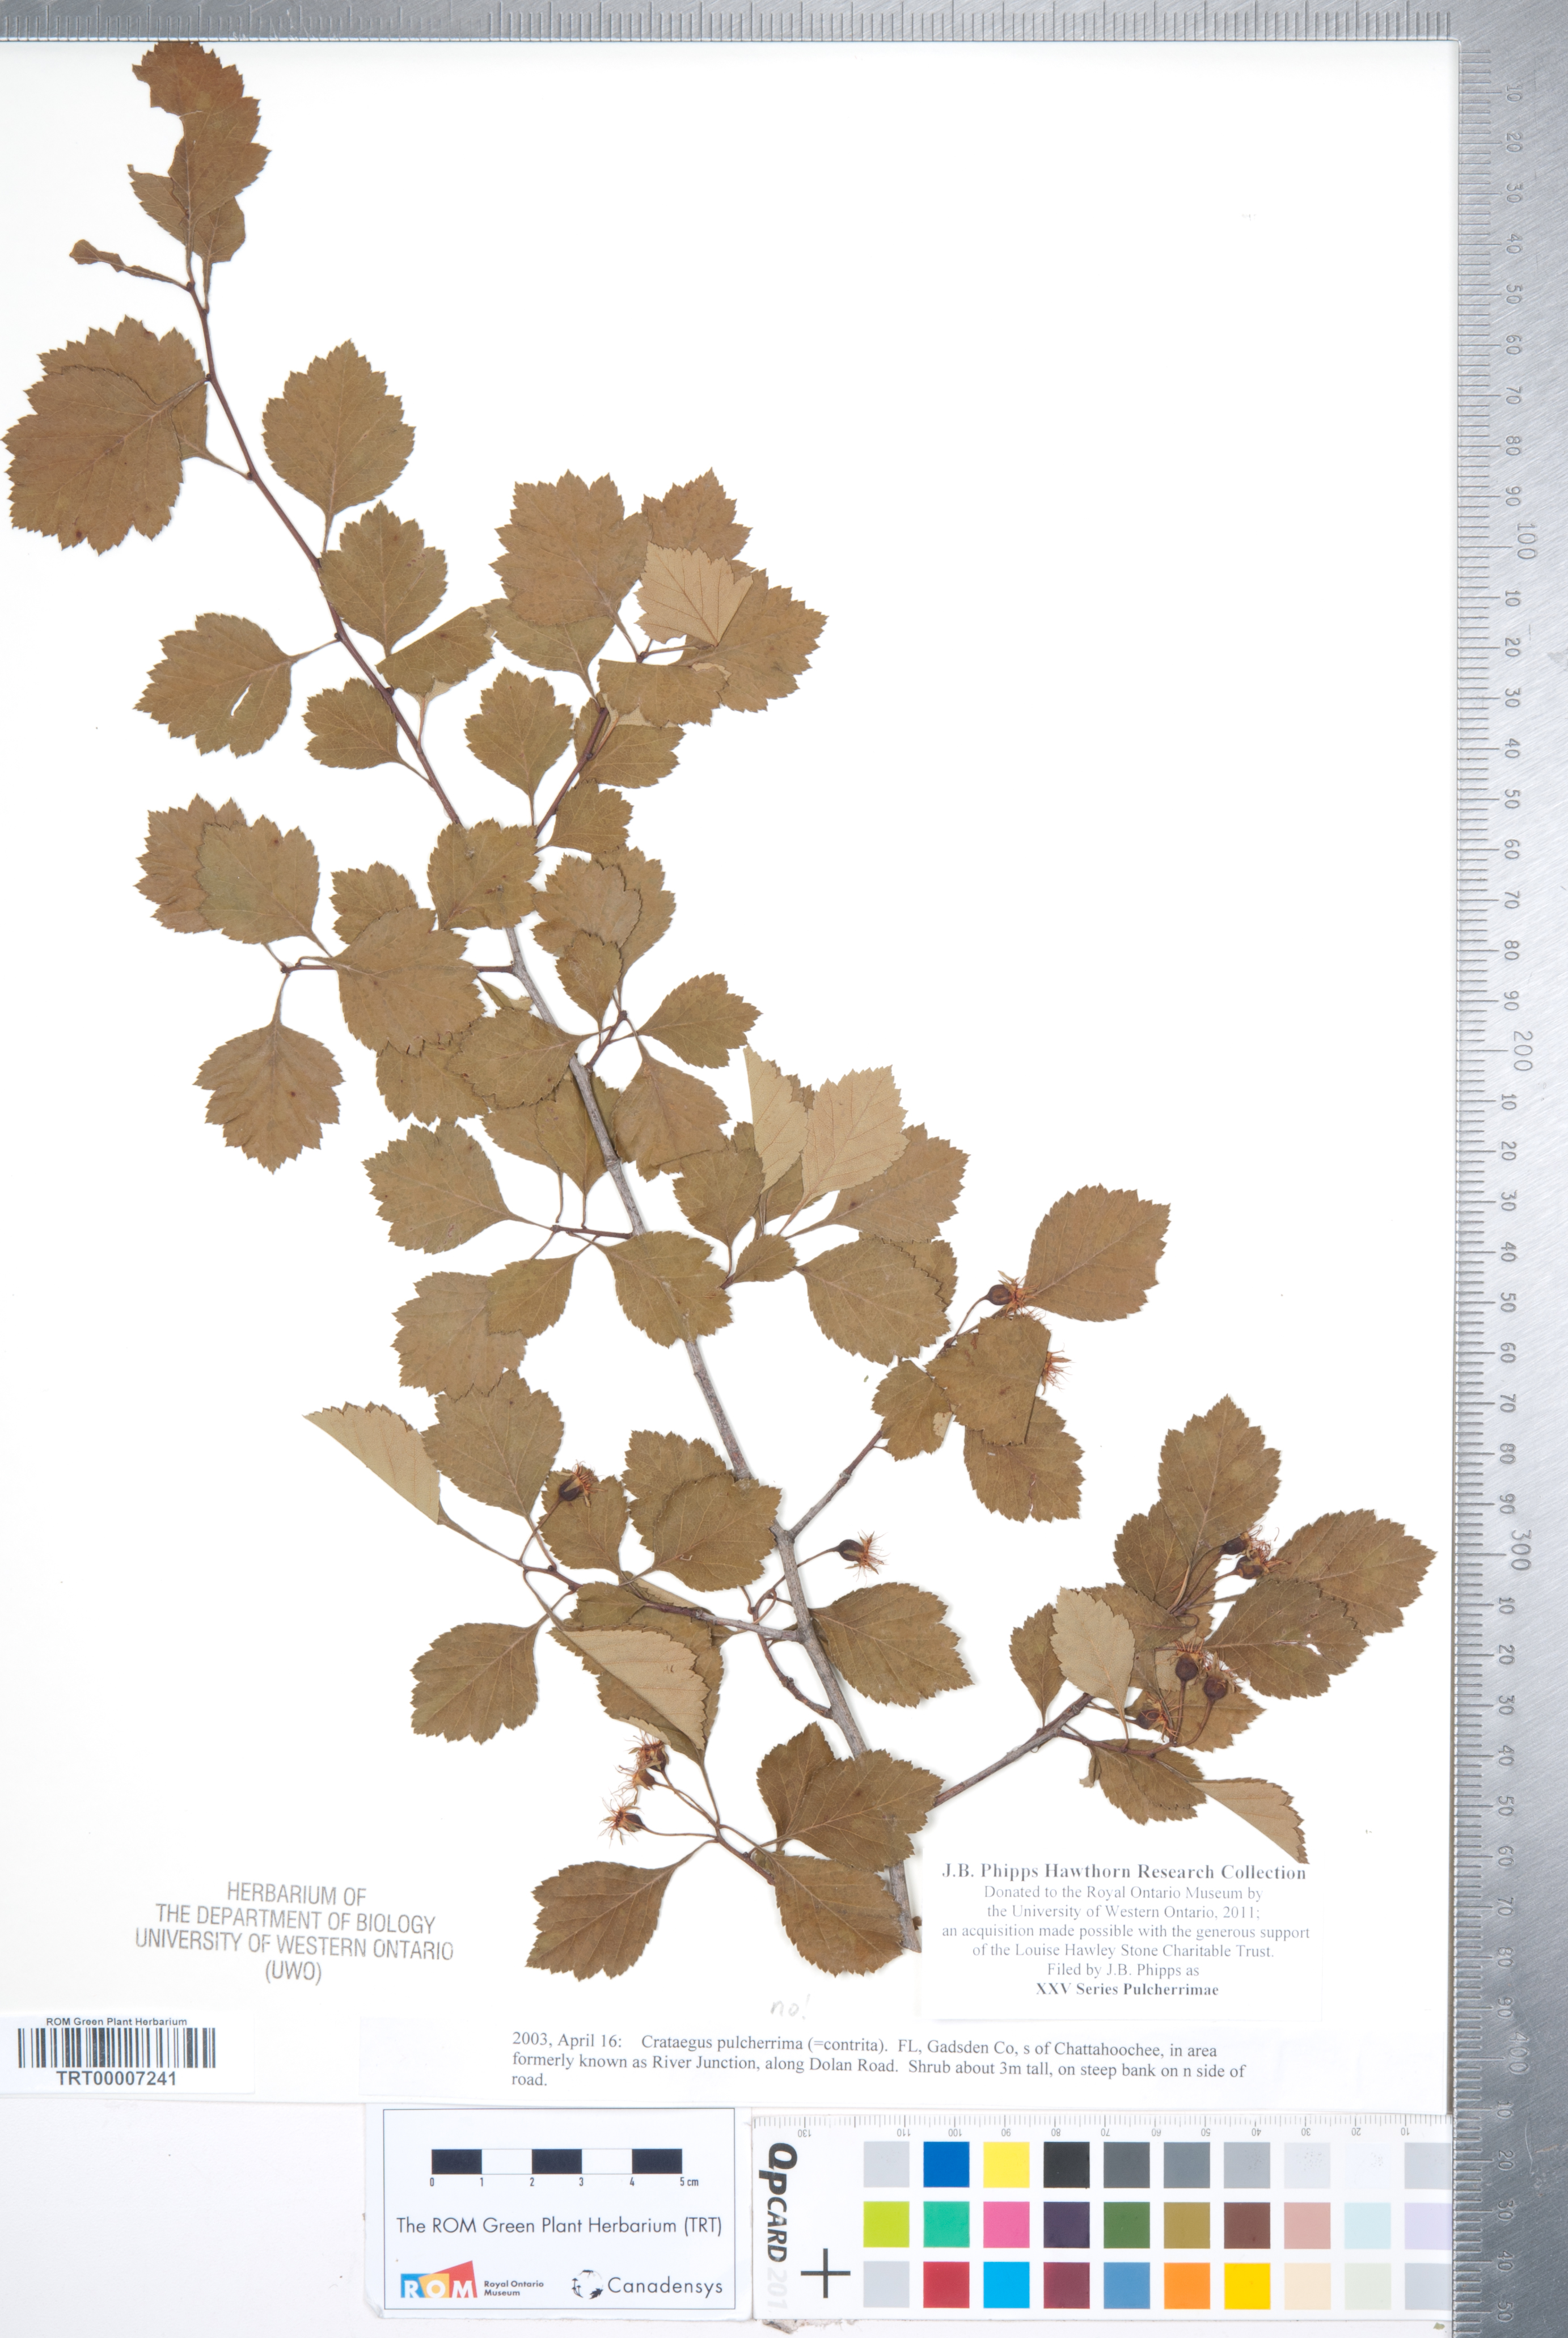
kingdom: Plantae
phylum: Tracheophyta
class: Magnoliopsida
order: Rosales
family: Rosaceae
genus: Crataegus
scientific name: Crataegus
